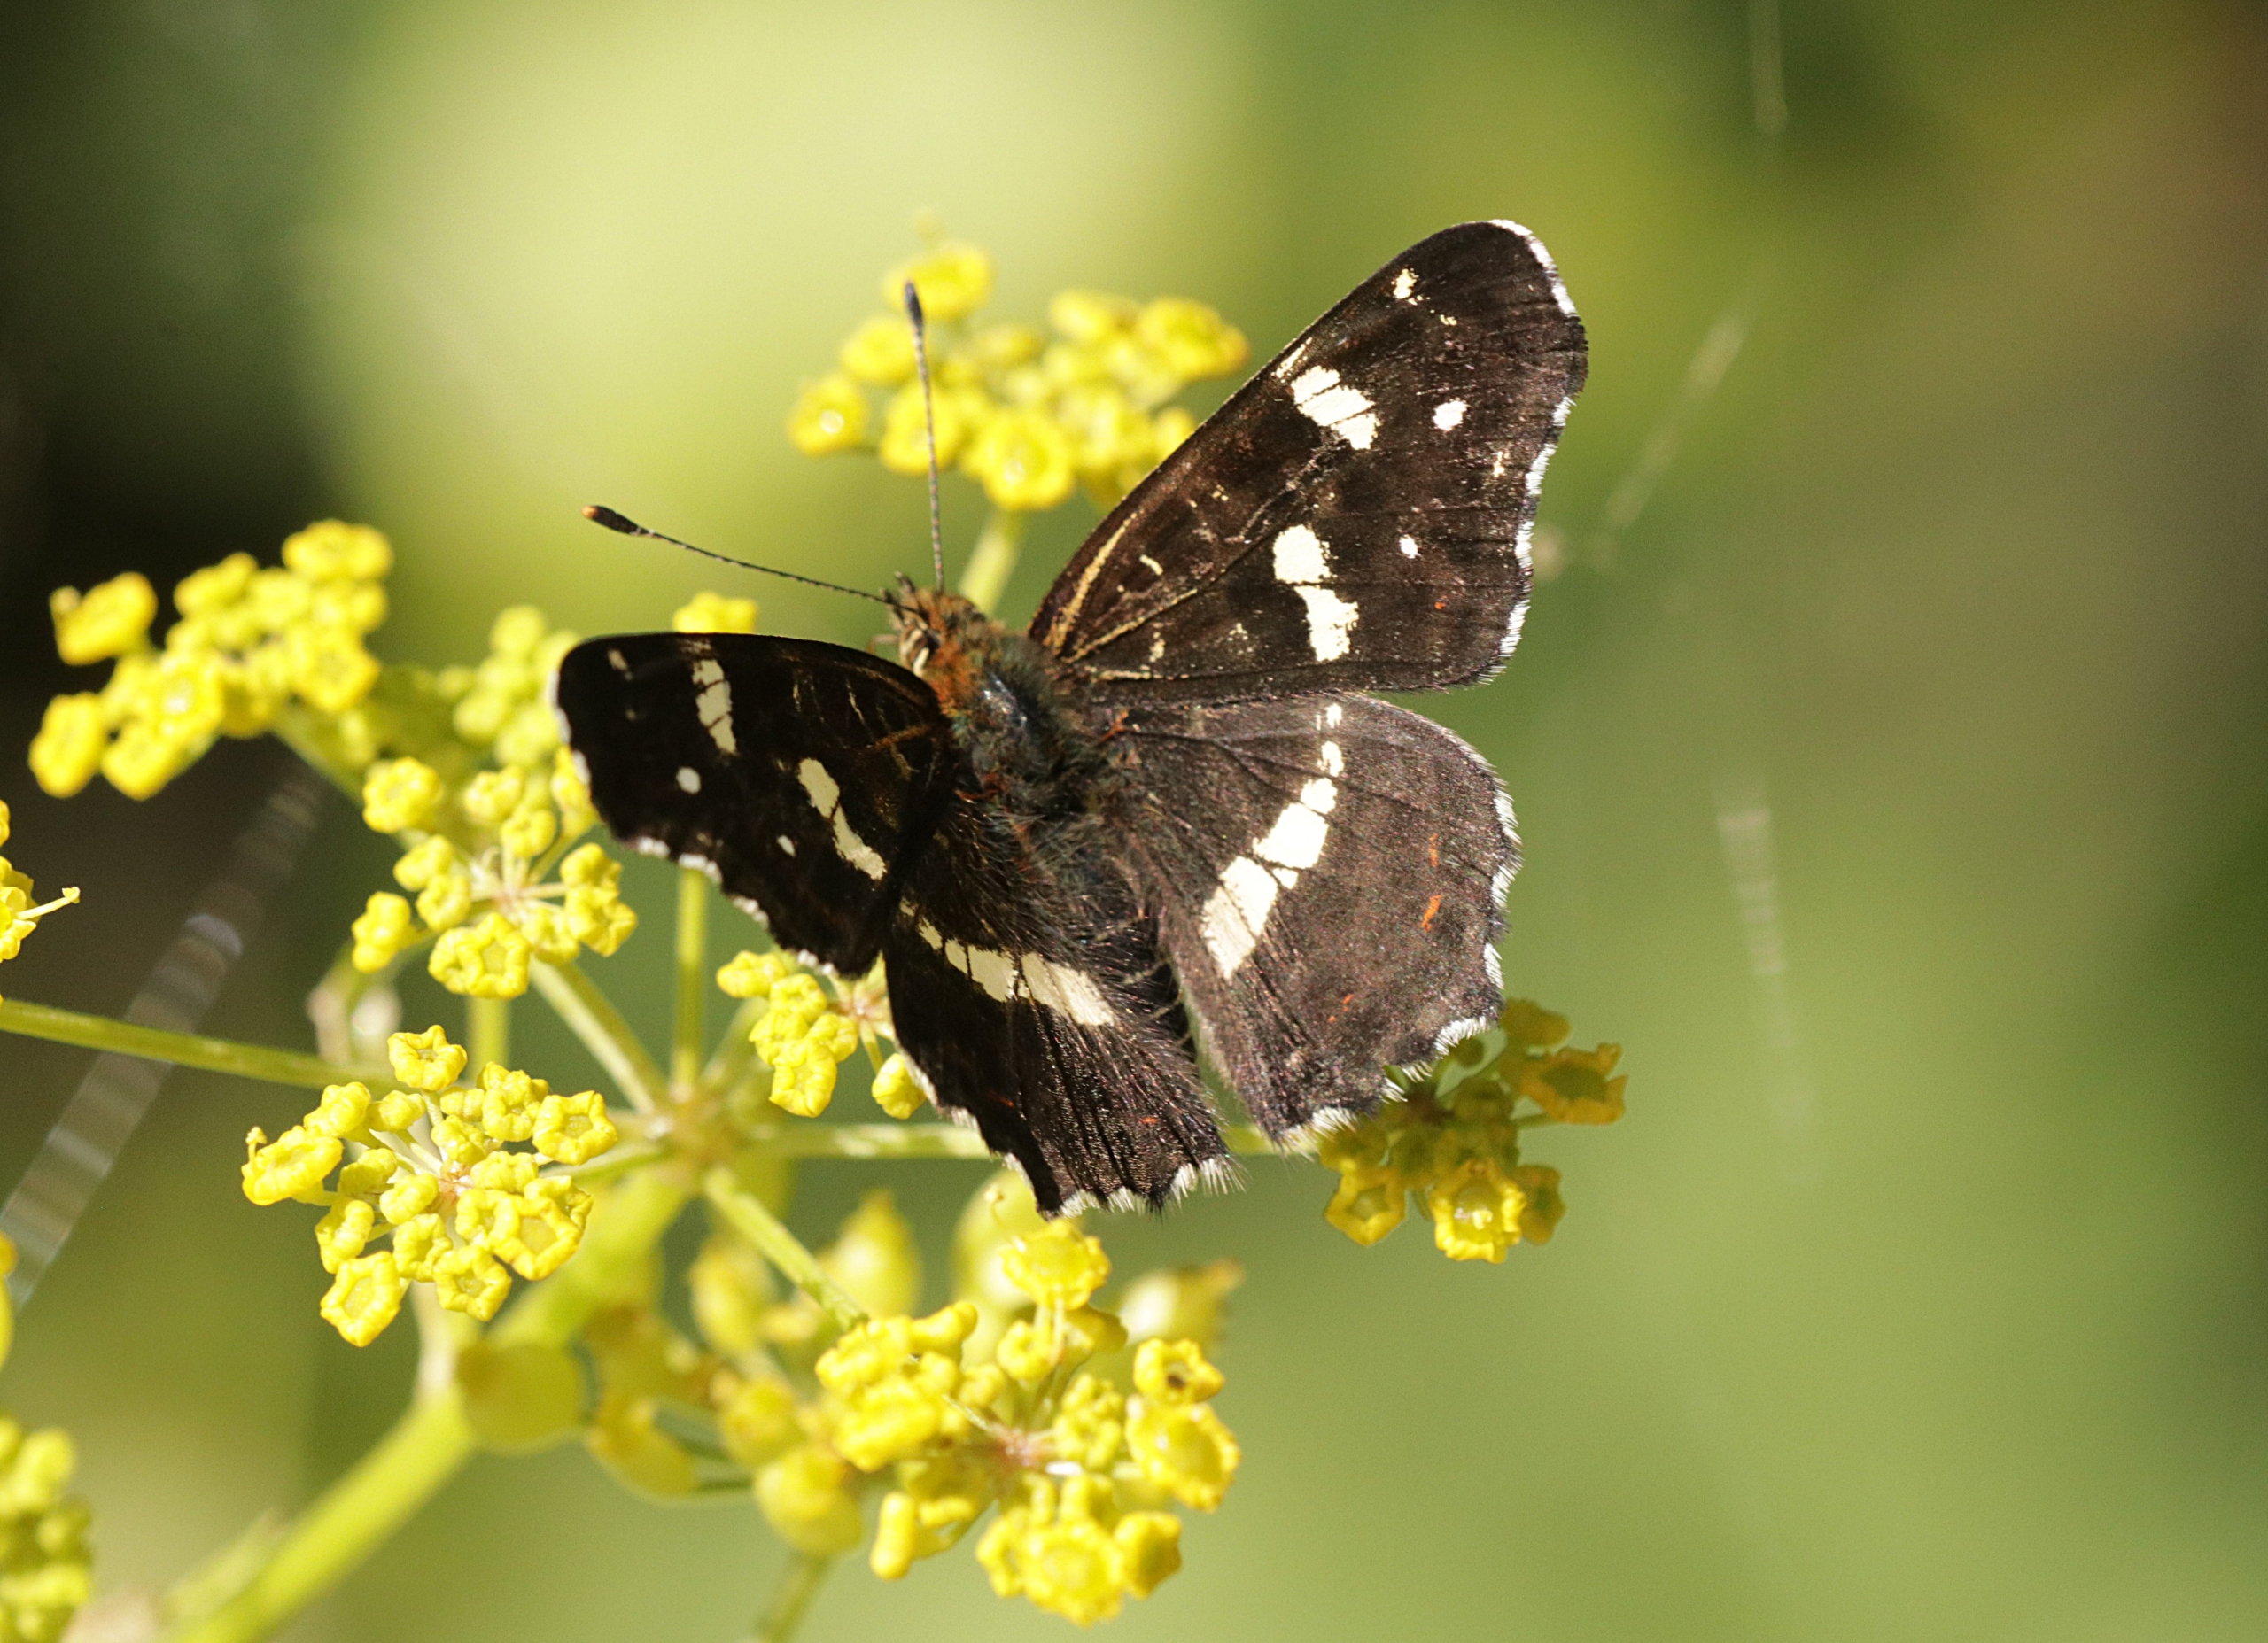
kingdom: Animalia
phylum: Arthropoda
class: Insecta
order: Lepidoptera
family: Nymphalidae
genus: Araschnia
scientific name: Araschnia levana
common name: Nældesommerfugl
